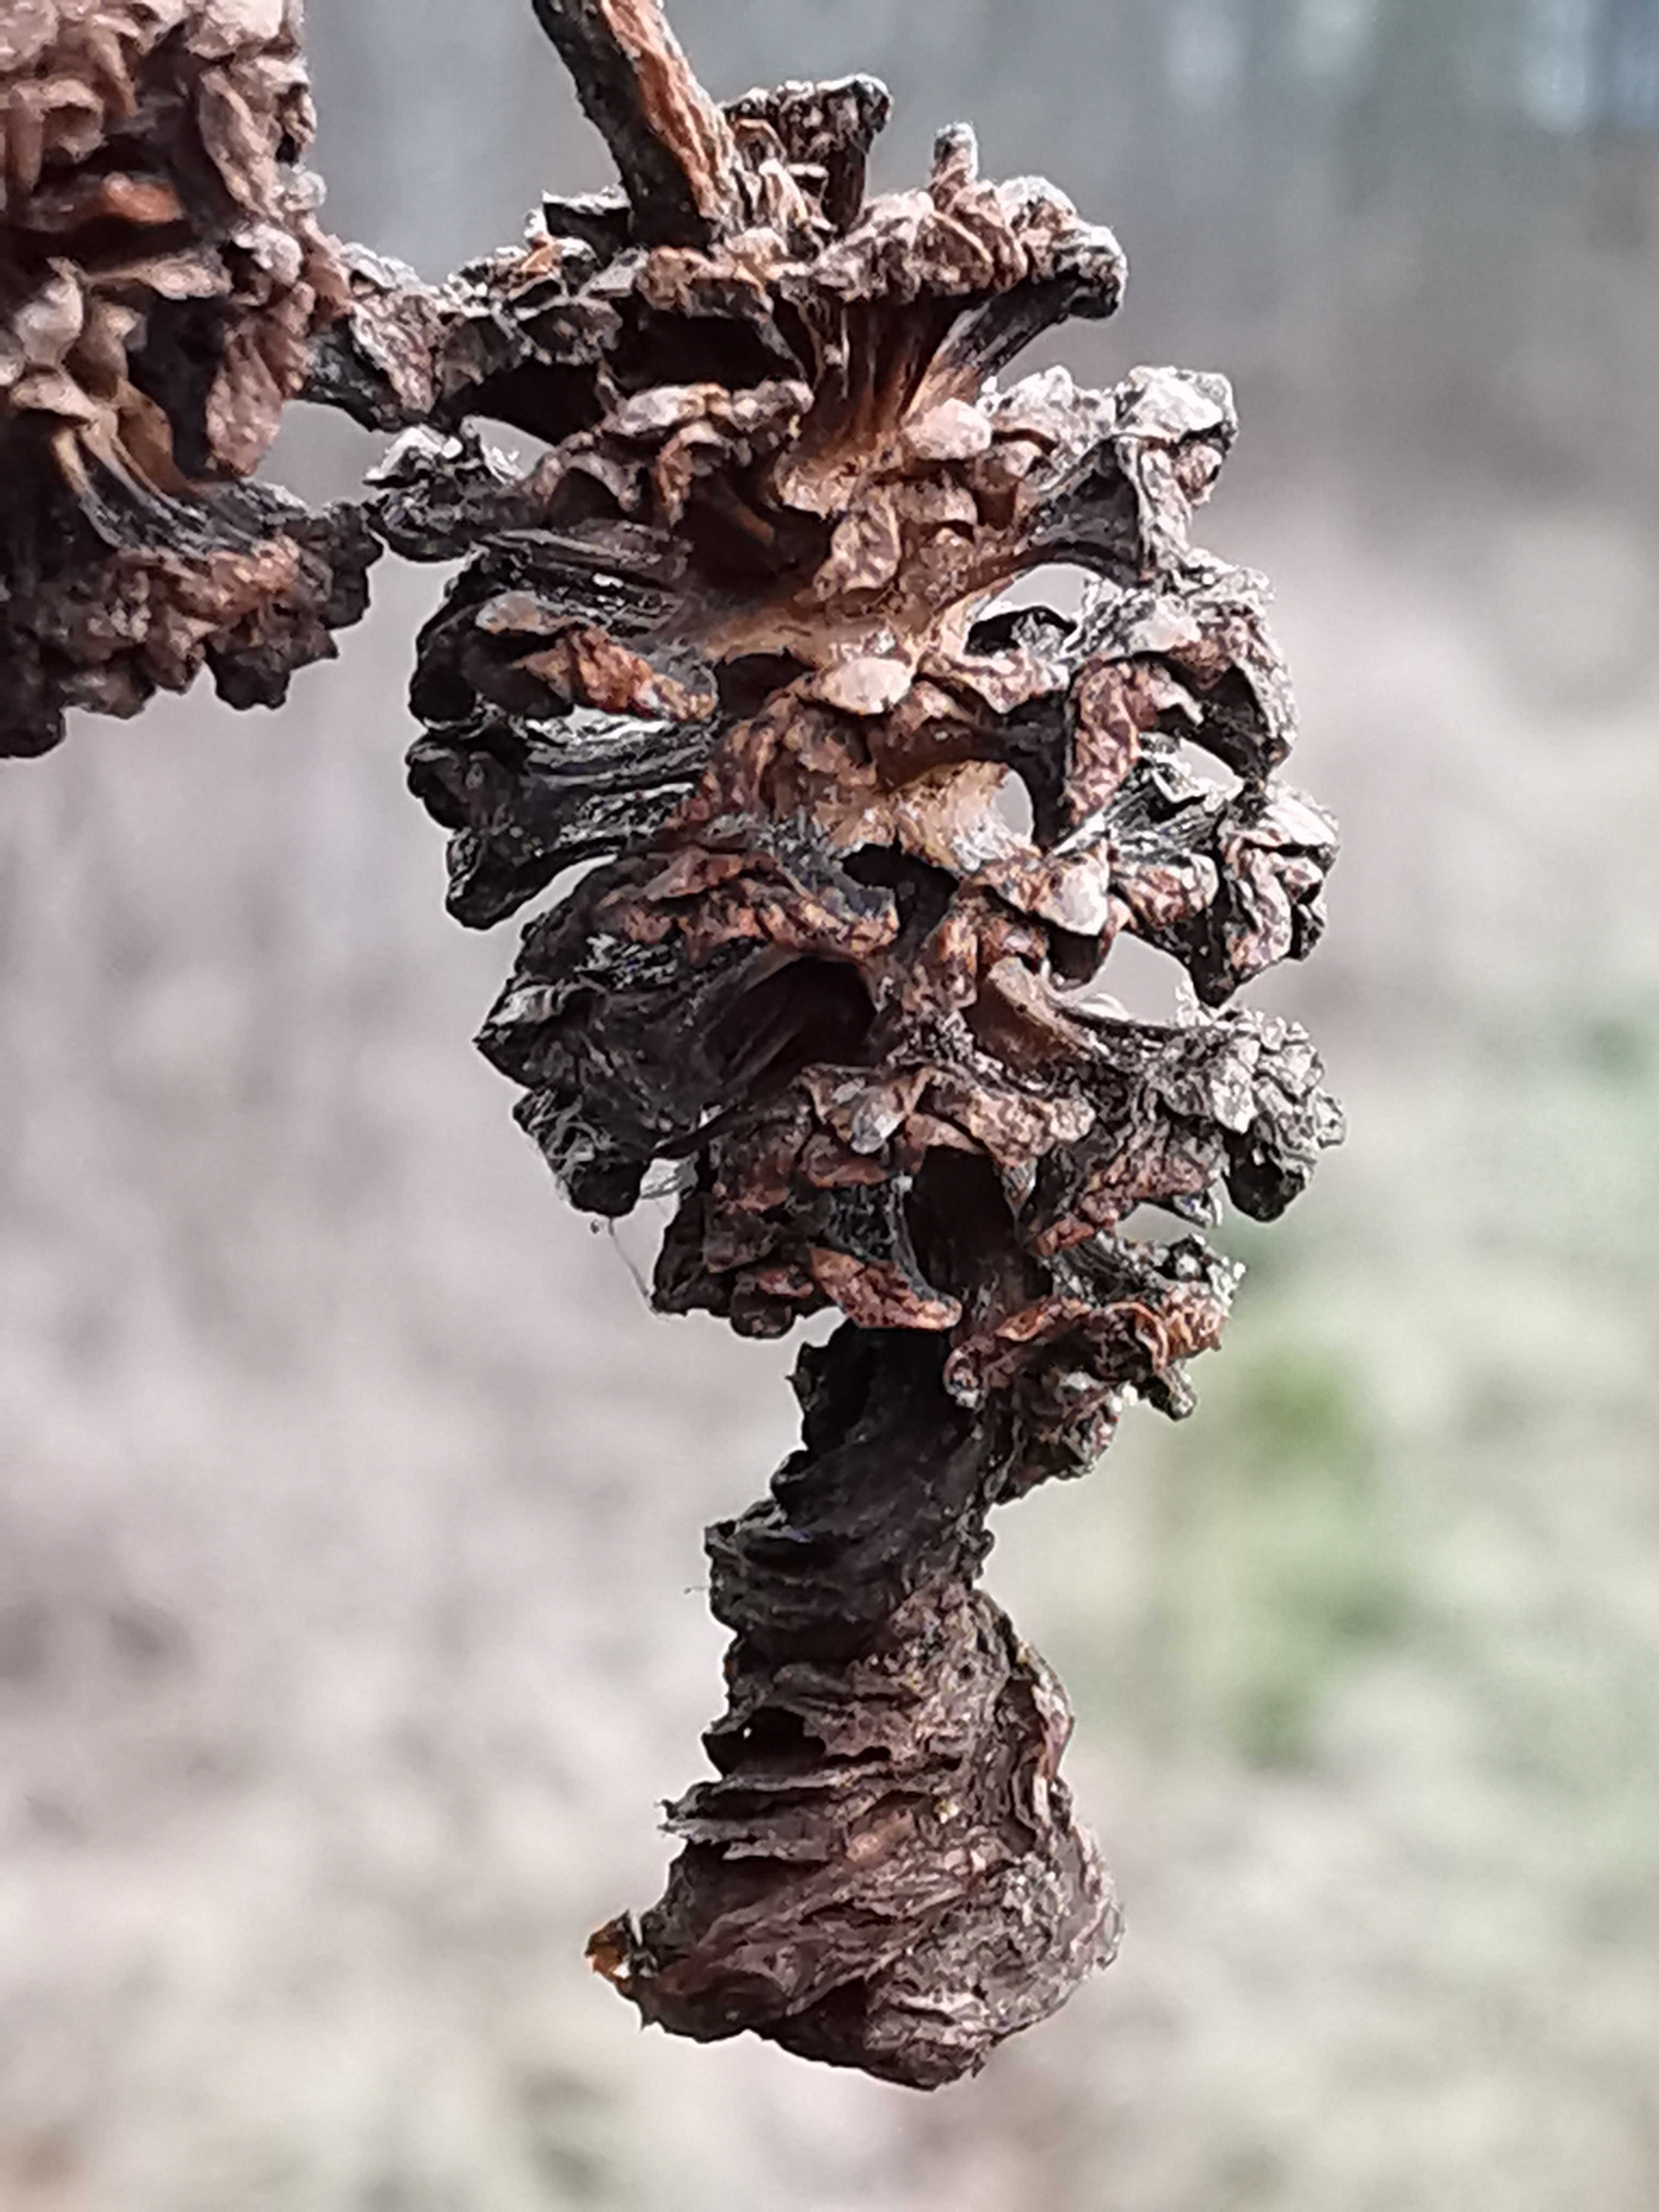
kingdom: Fungi
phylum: Ascomycota
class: Taphrinomycetes
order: Taphrinales
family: Taphrinaceae
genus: Taphrina
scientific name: Taphrina alni
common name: Alder tongue
